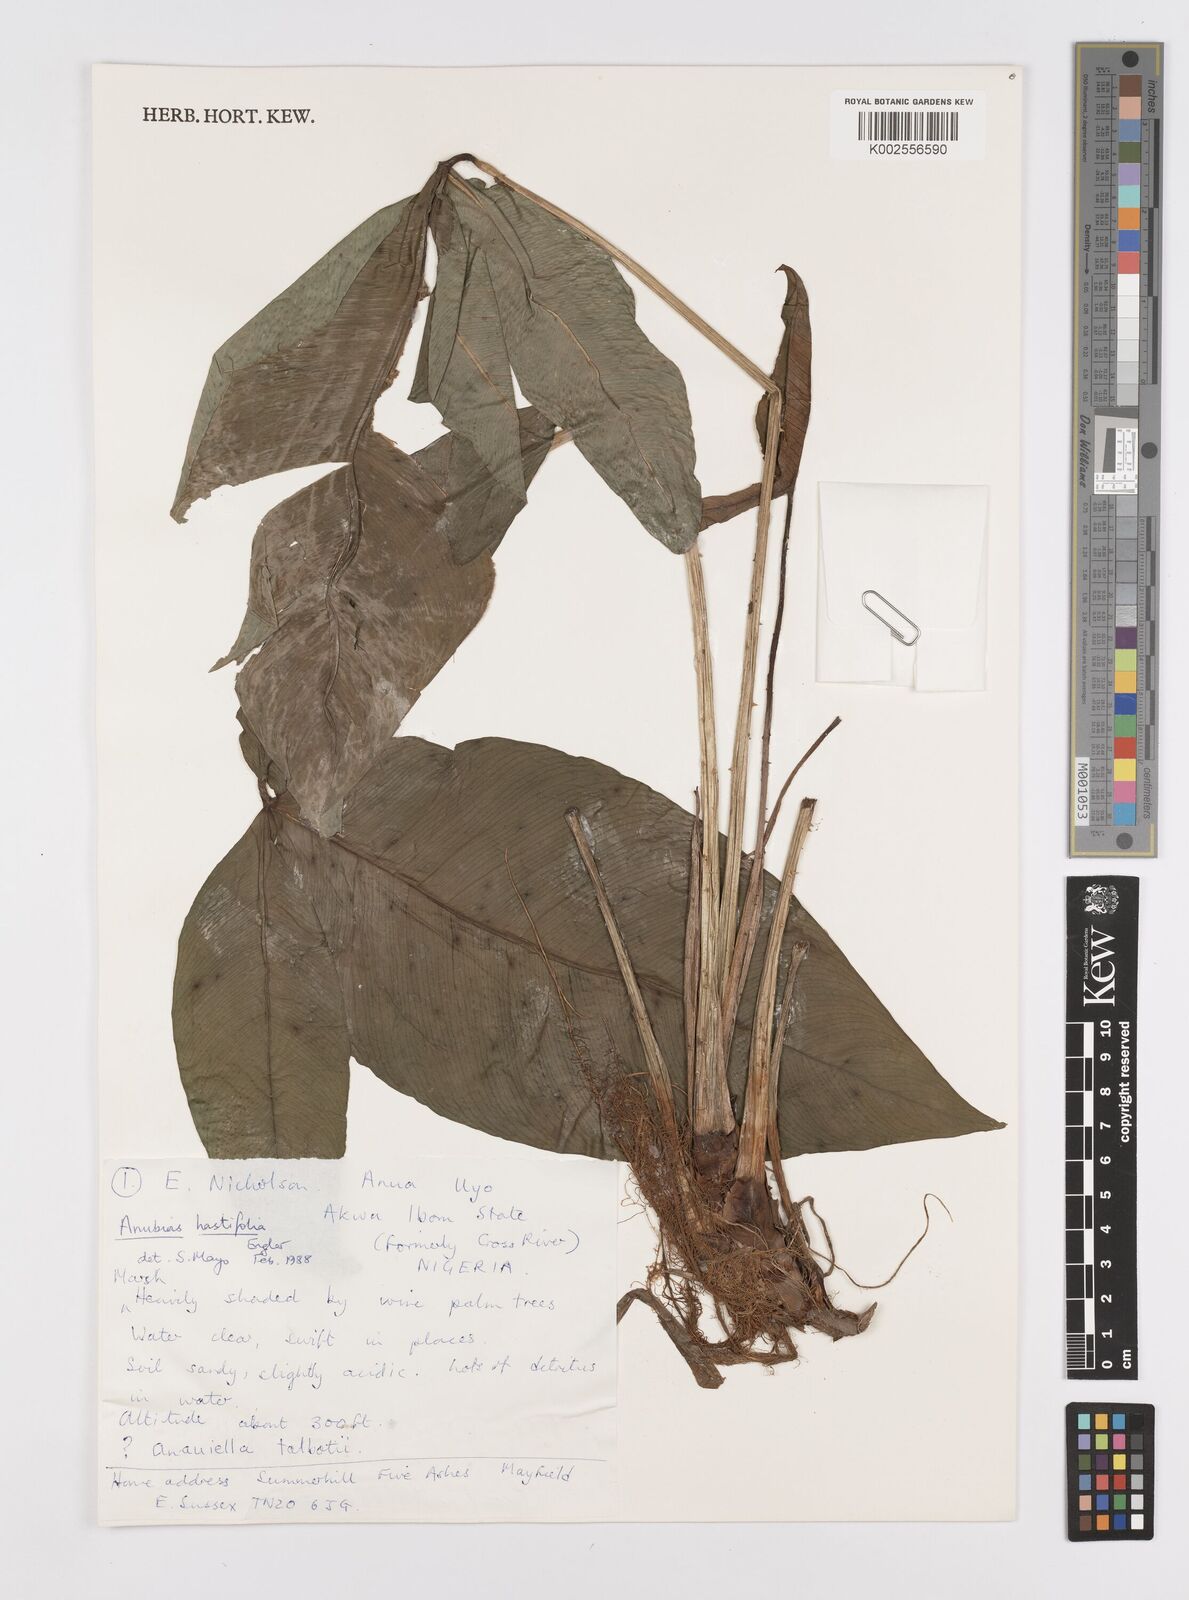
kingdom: Plantae
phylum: Tracheophyta
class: Liliopsida
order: Alismatales
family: Araceae
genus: Anubias
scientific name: Anubias hastifolia
